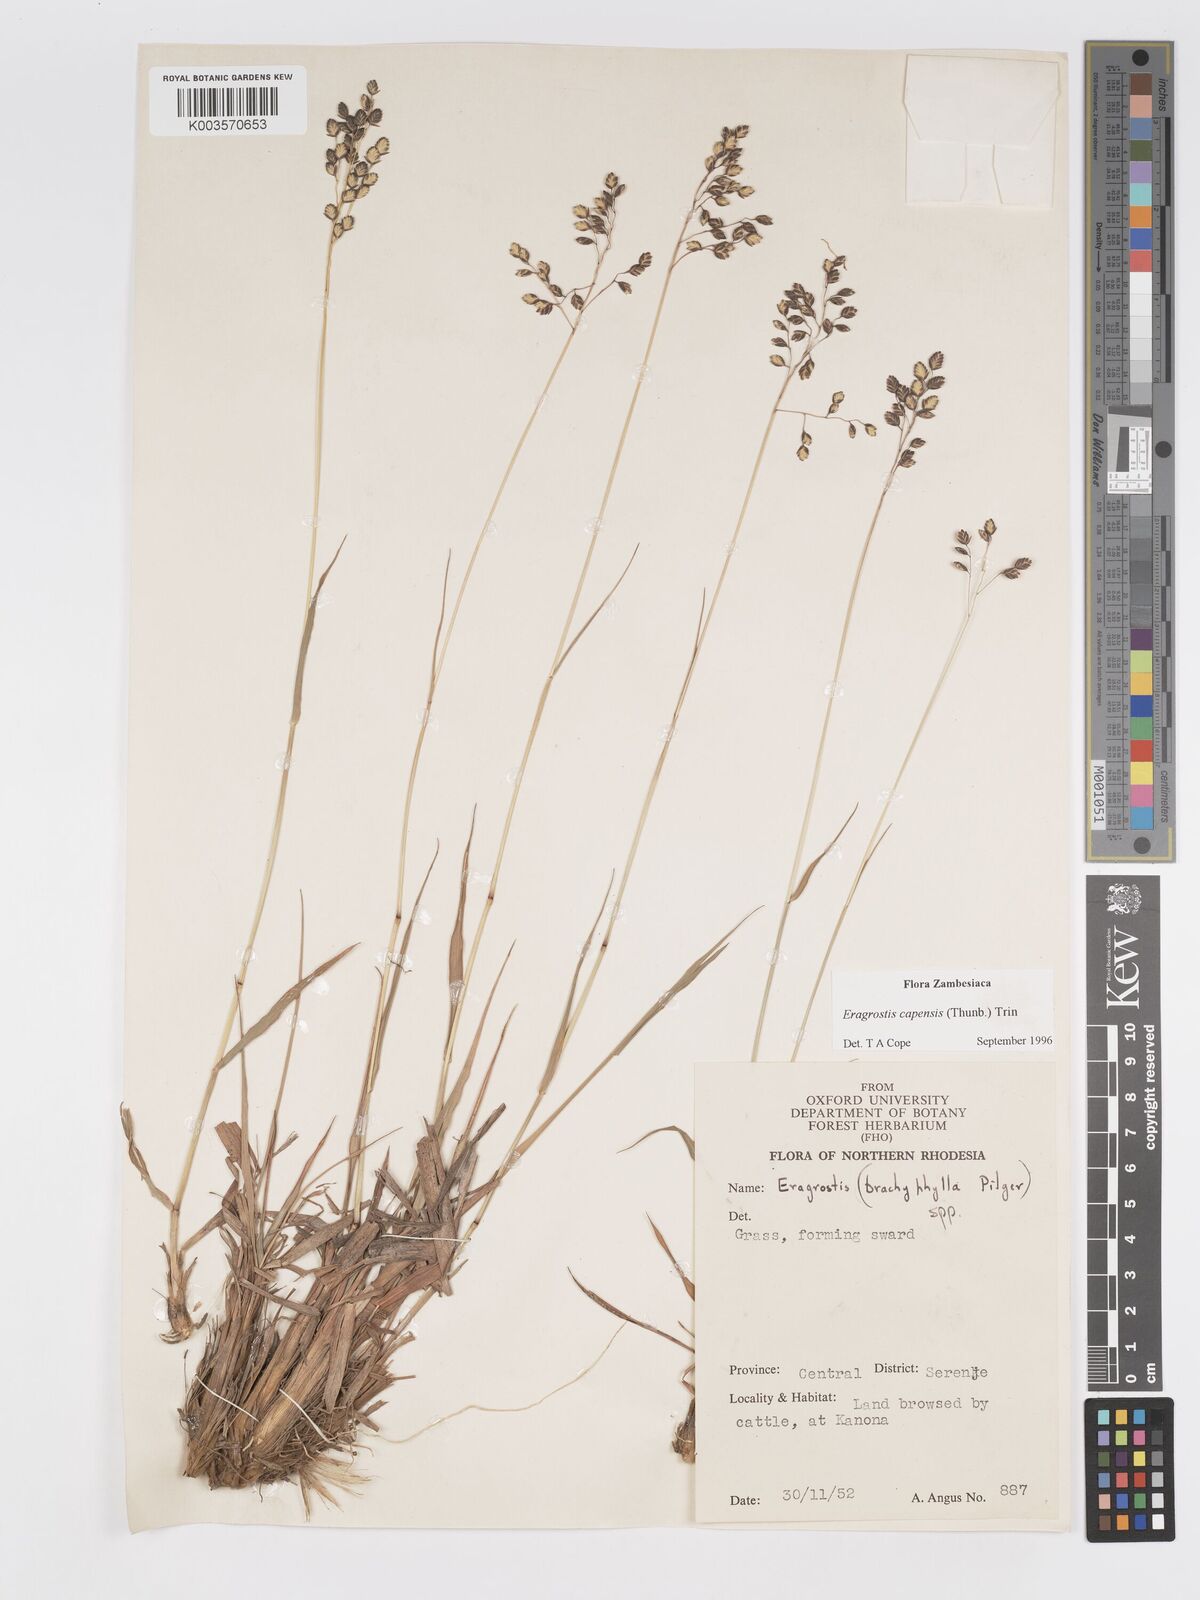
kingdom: Plantae
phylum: Tracheophyta
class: Liliopsida
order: Poales
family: Poaceae
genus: Eragrostis
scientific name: Eragrostis capensis
